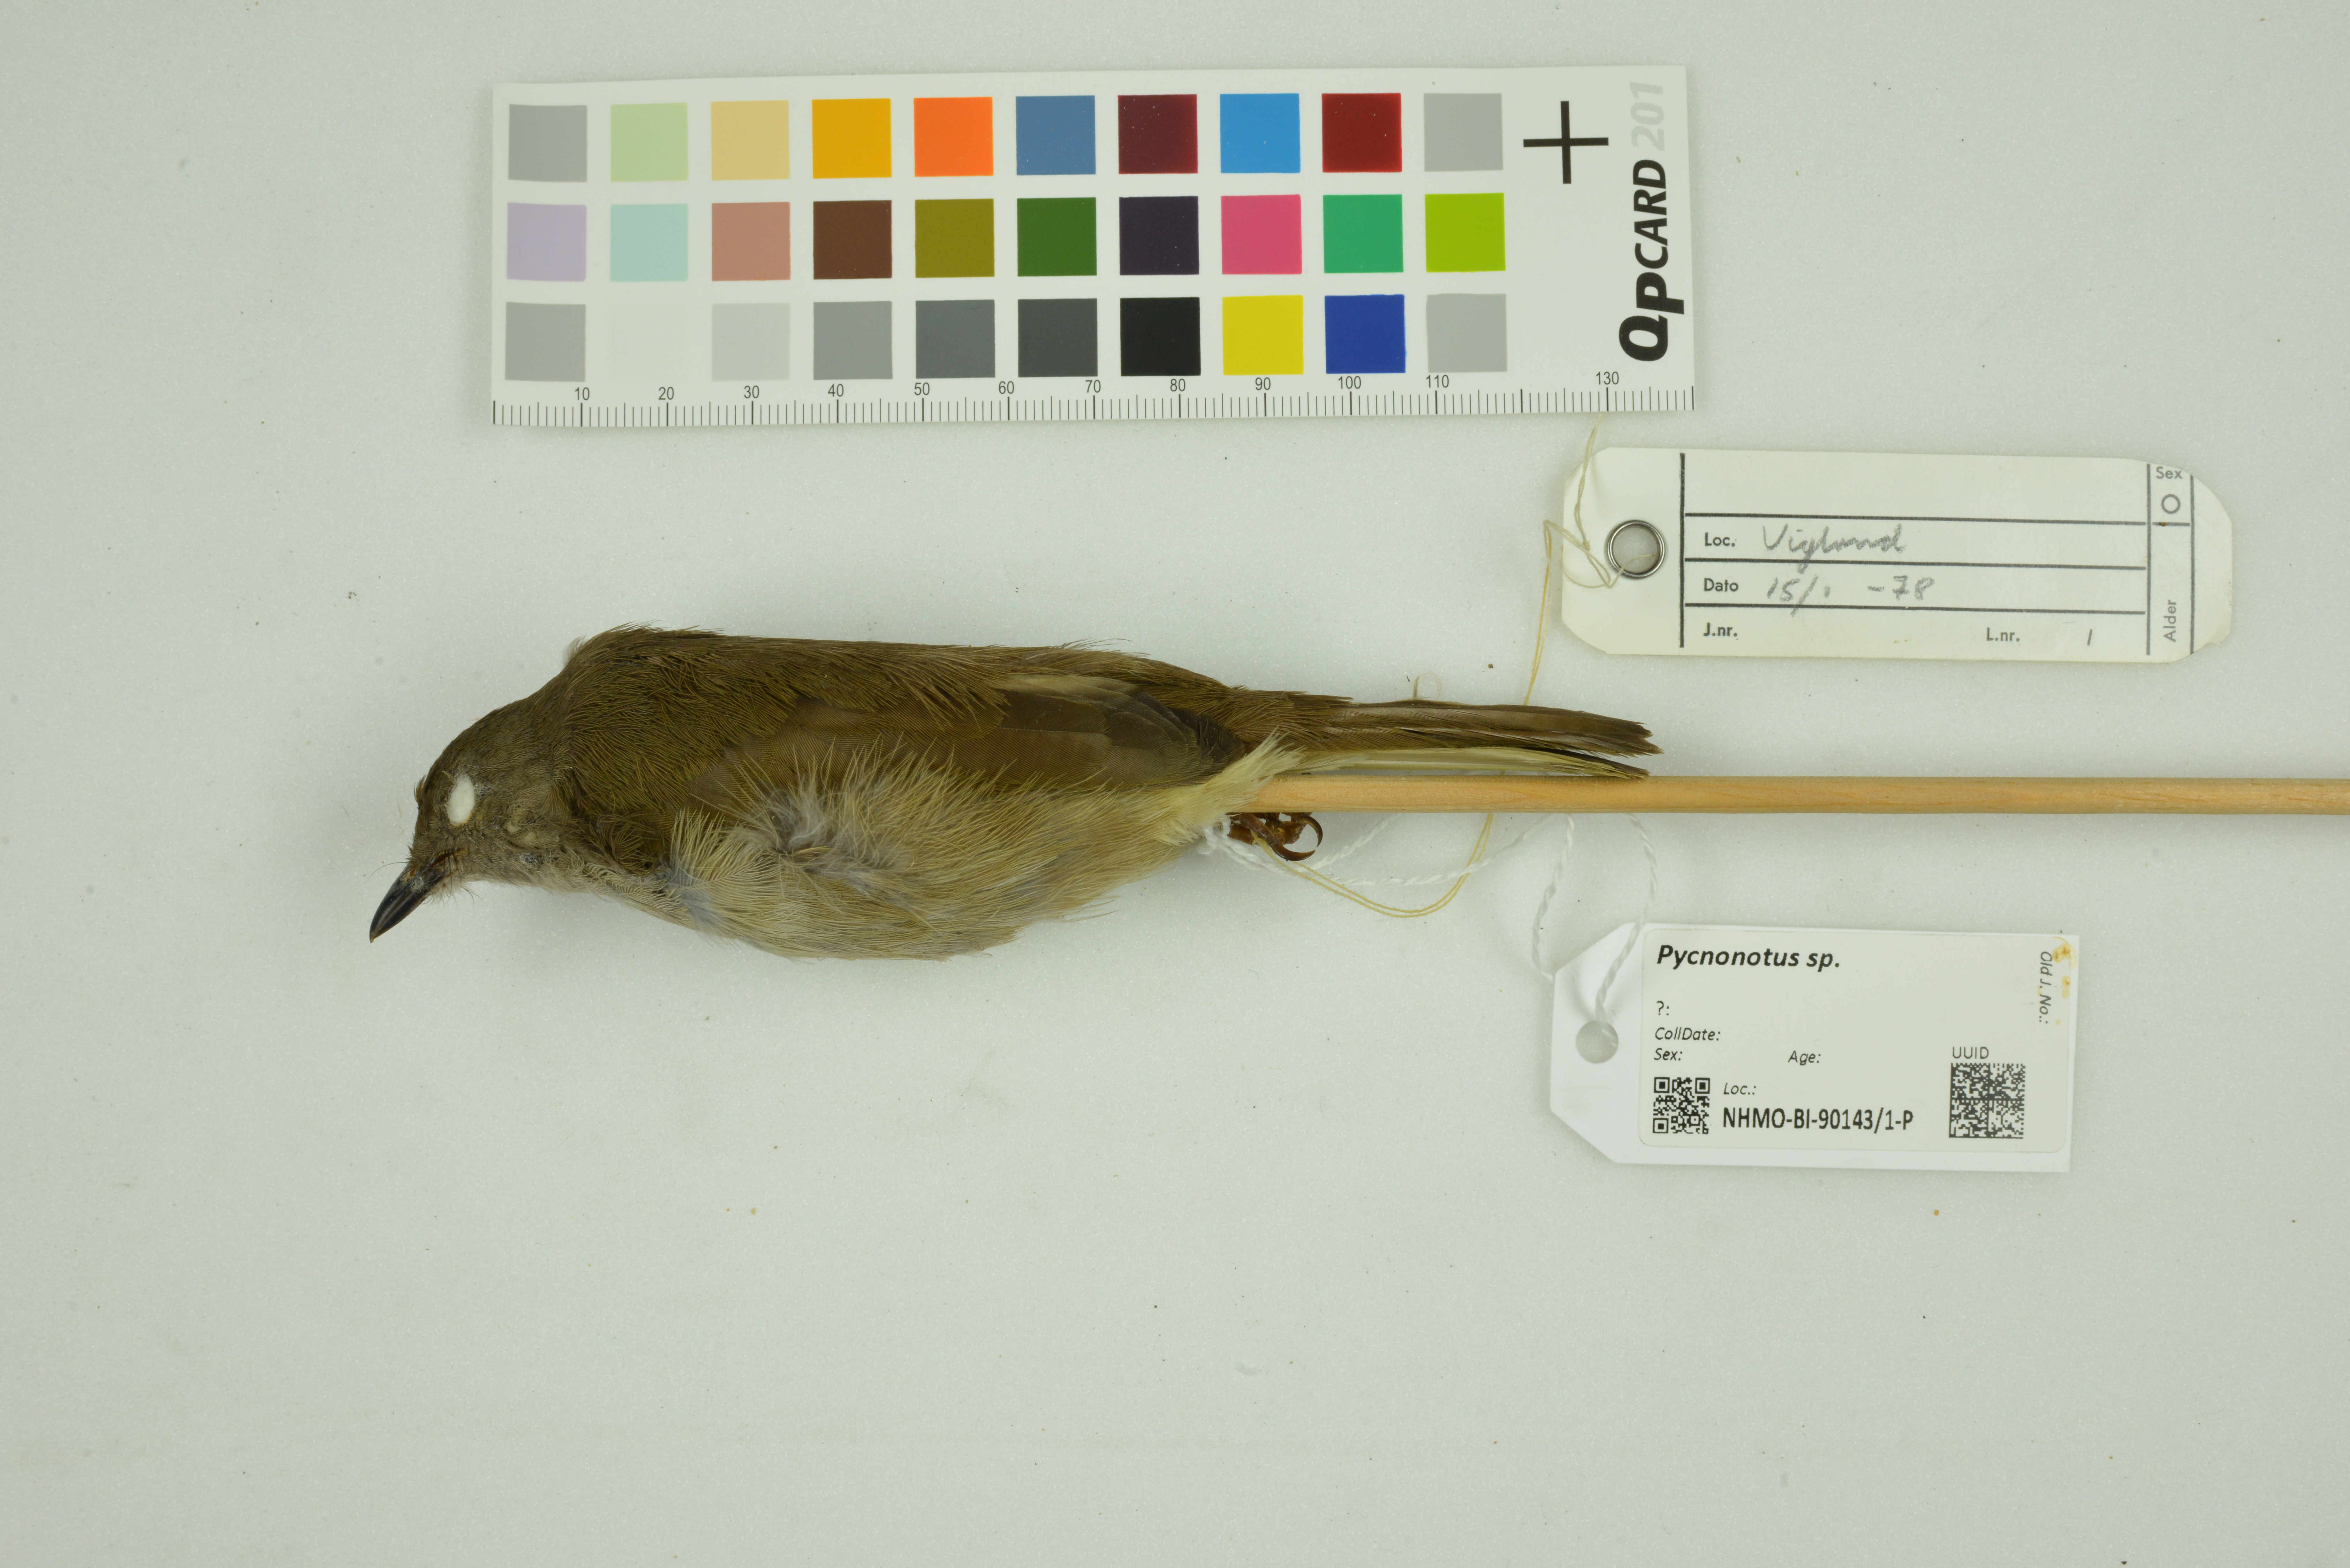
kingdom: Animalia
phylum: Chordata
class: Aves
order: Passeriformes
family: Pycnonotidae
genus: Pycnonotus
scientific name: Pycnonotus
